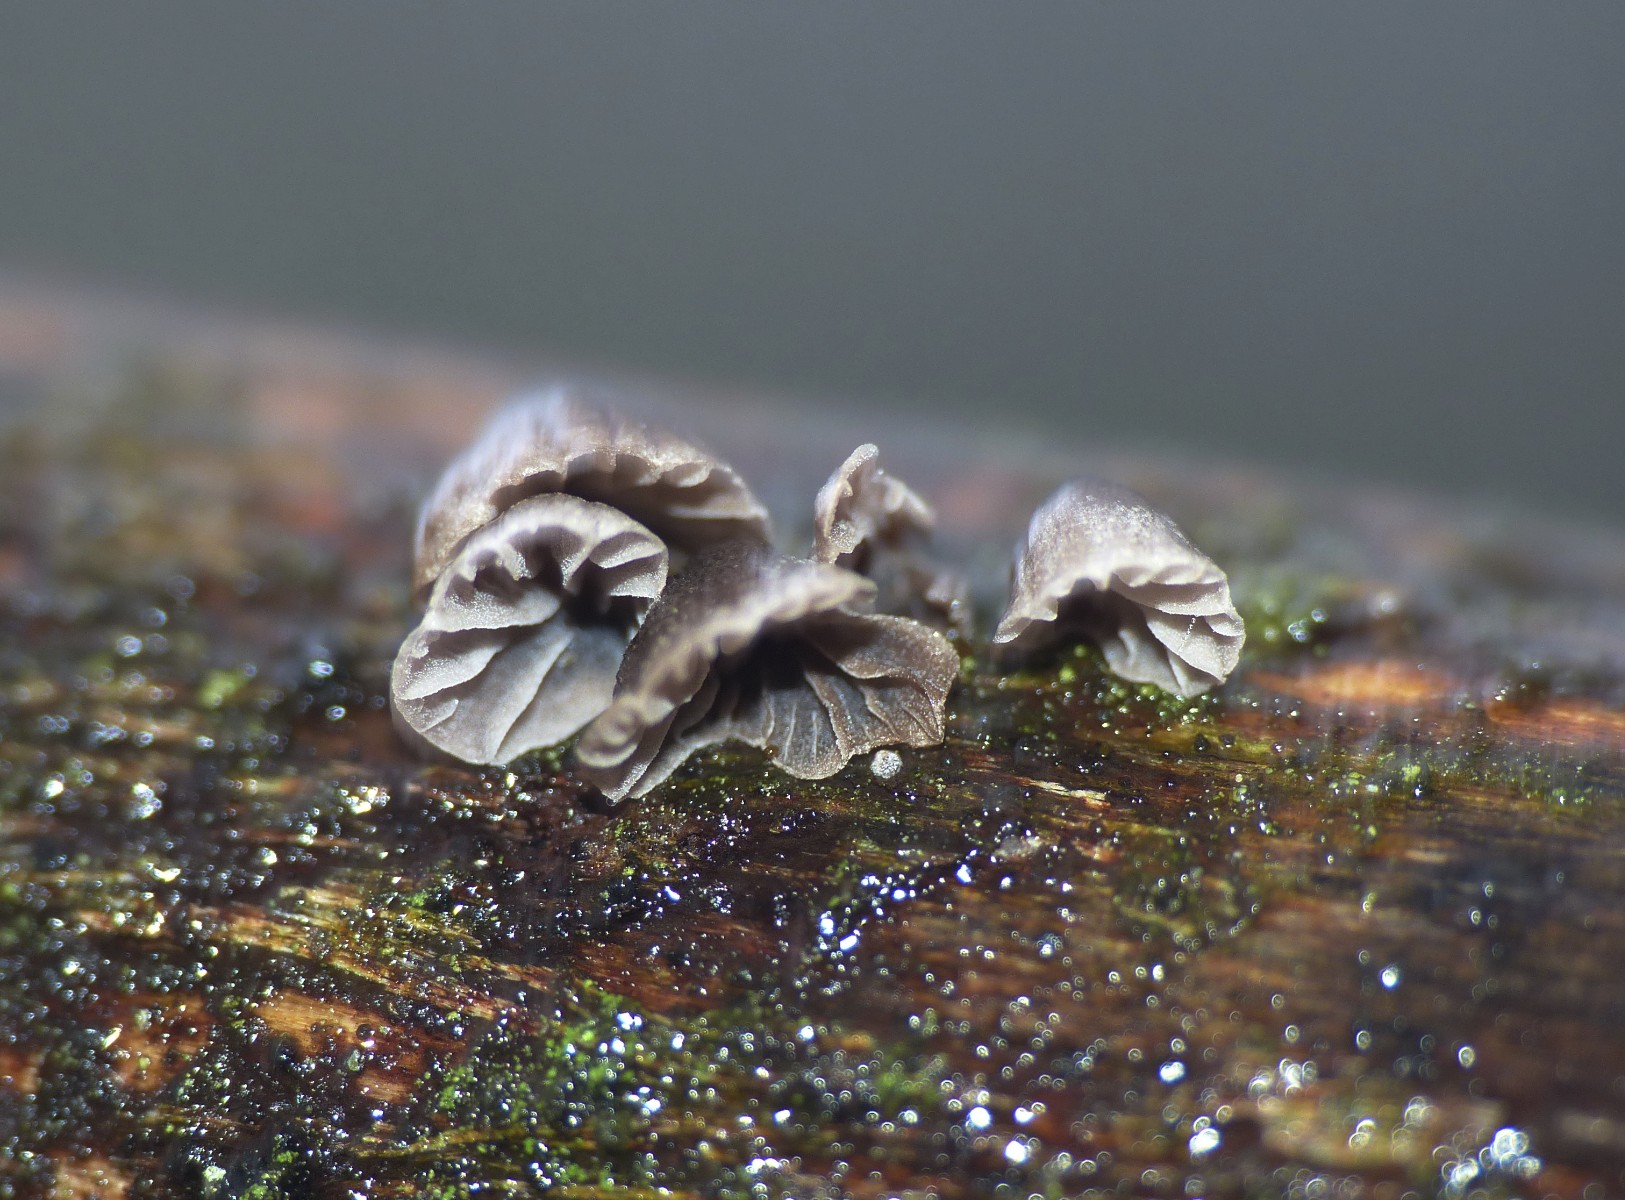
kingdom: Fungi
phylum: Basidiomycota
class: Agaricomycetes
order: Agaricales
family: Tricholomataceae
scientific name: Tricholomataceae
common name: ridderhatfamilien
